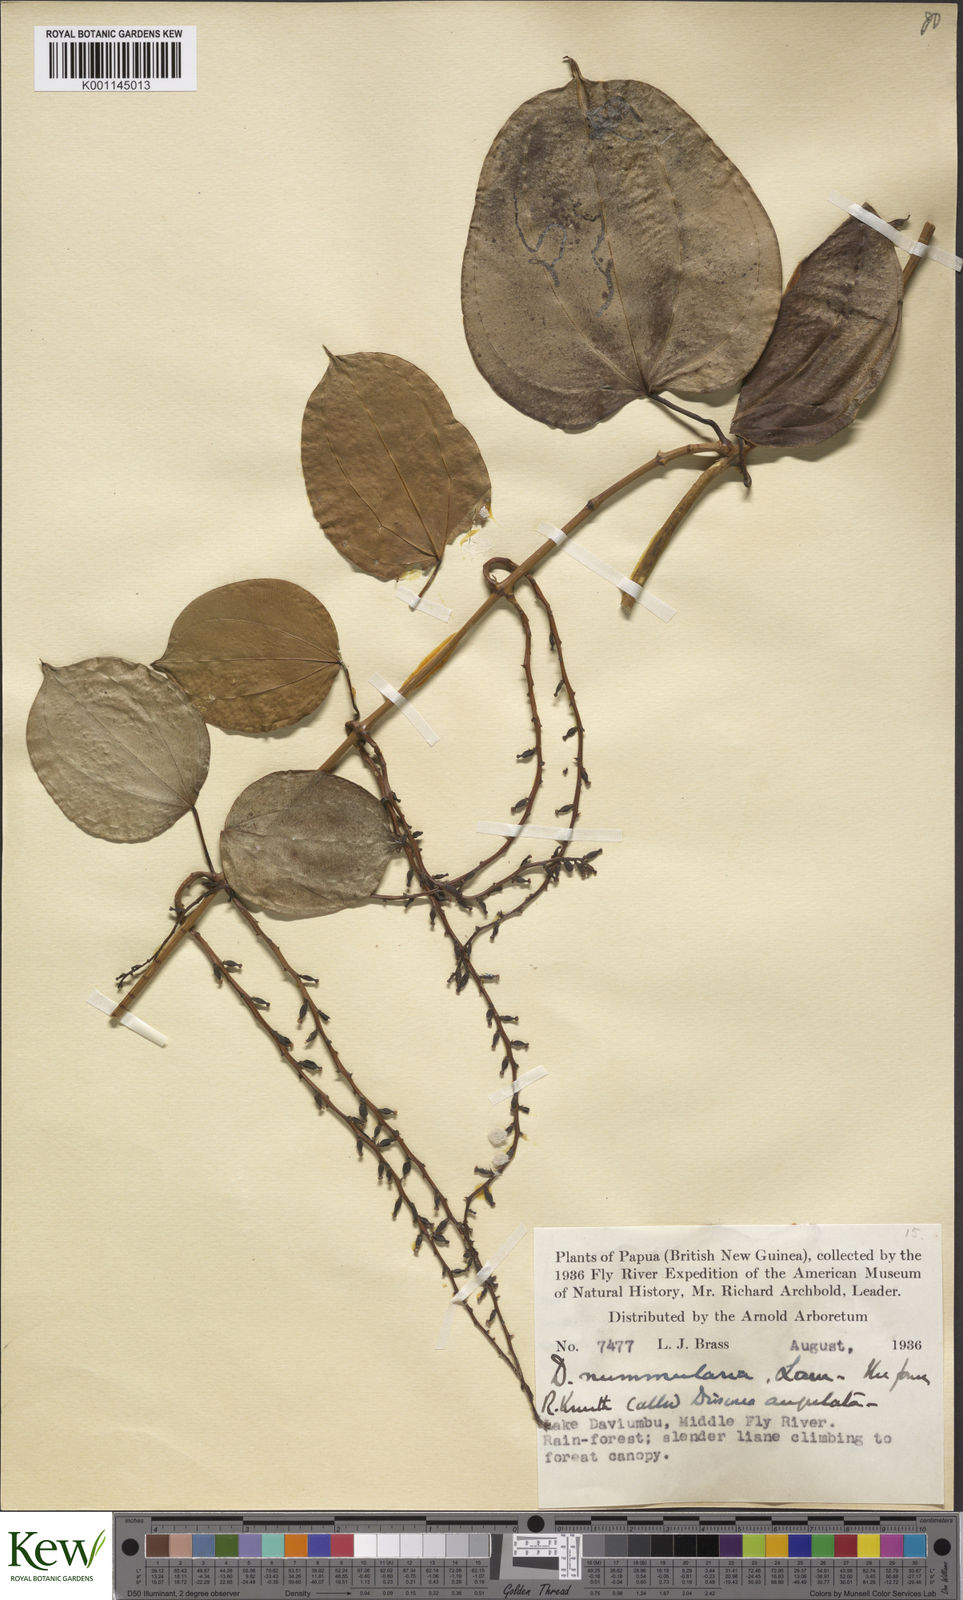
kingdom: Plantae
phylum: Tracheophyta
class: Liliopsida
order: Dioscoreales
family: Dioscoreaceae
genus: Dioscorea
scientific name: Dioscorea nummularia
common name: Pacific yam
